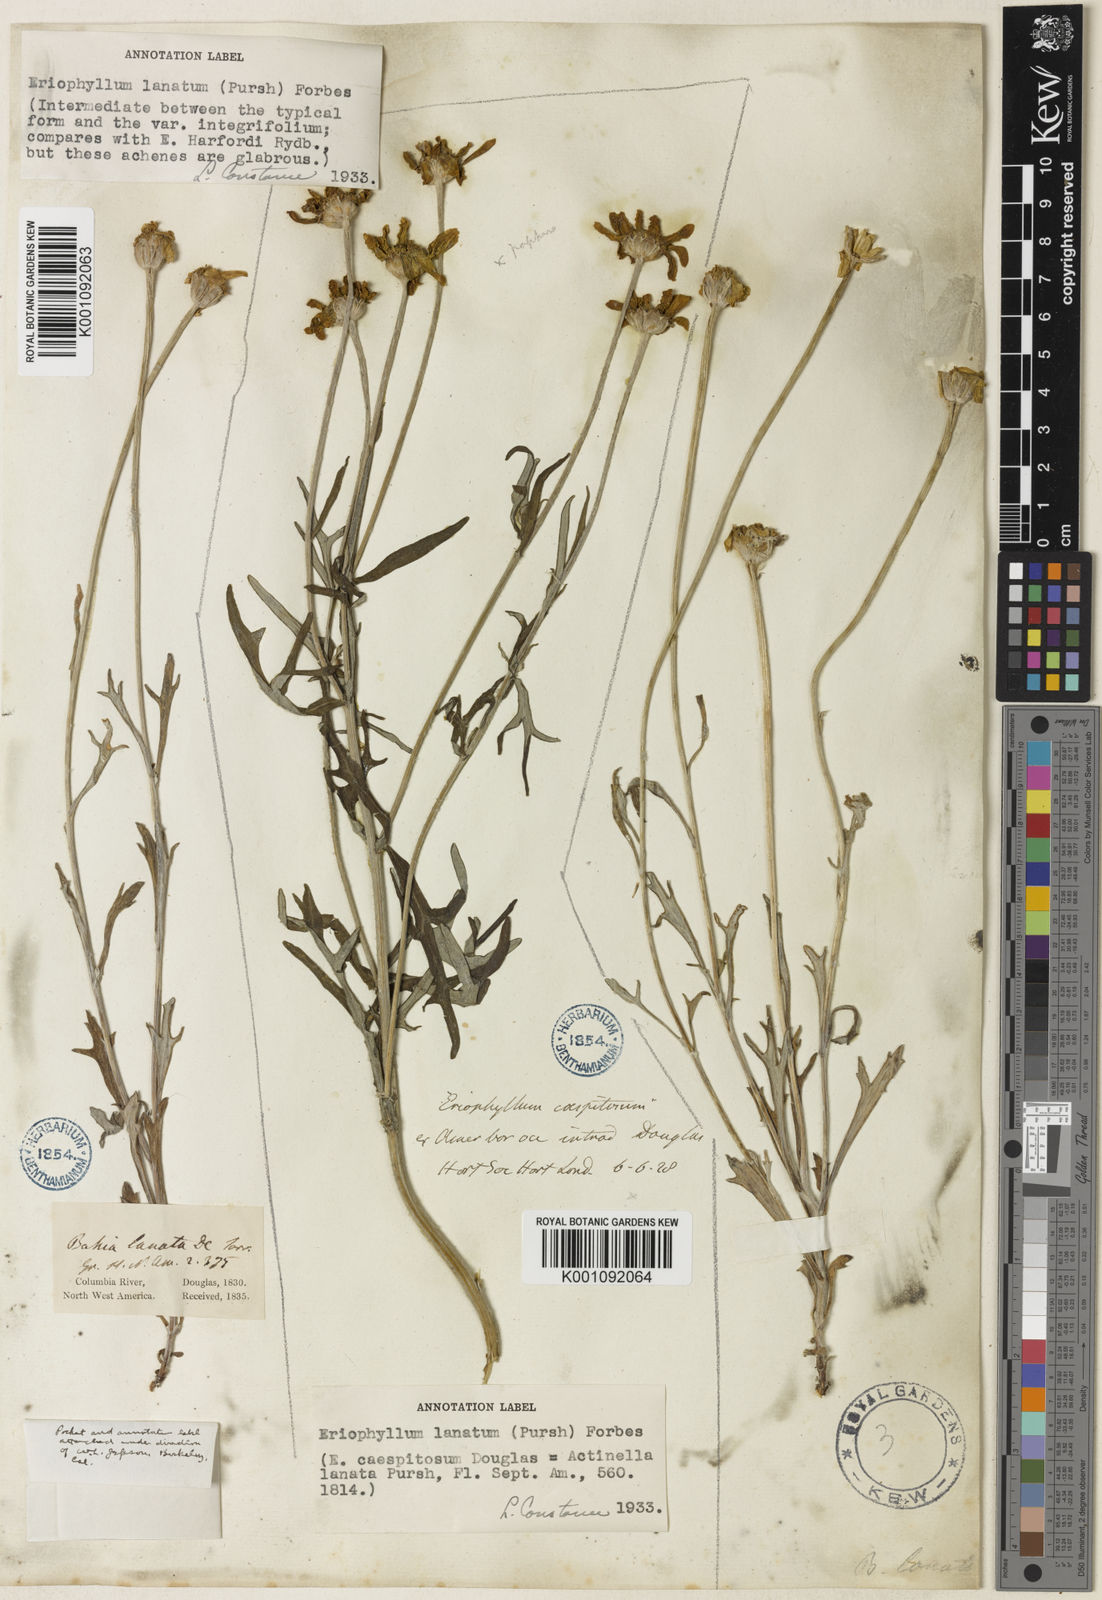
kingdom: Plantae
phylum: Tracheophyta
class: Magnoliopsida
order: Asterales
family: Asteraceae
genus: Eriophyllum
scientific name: Eriophyllum lanatum
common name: Common woolly-sunflower
